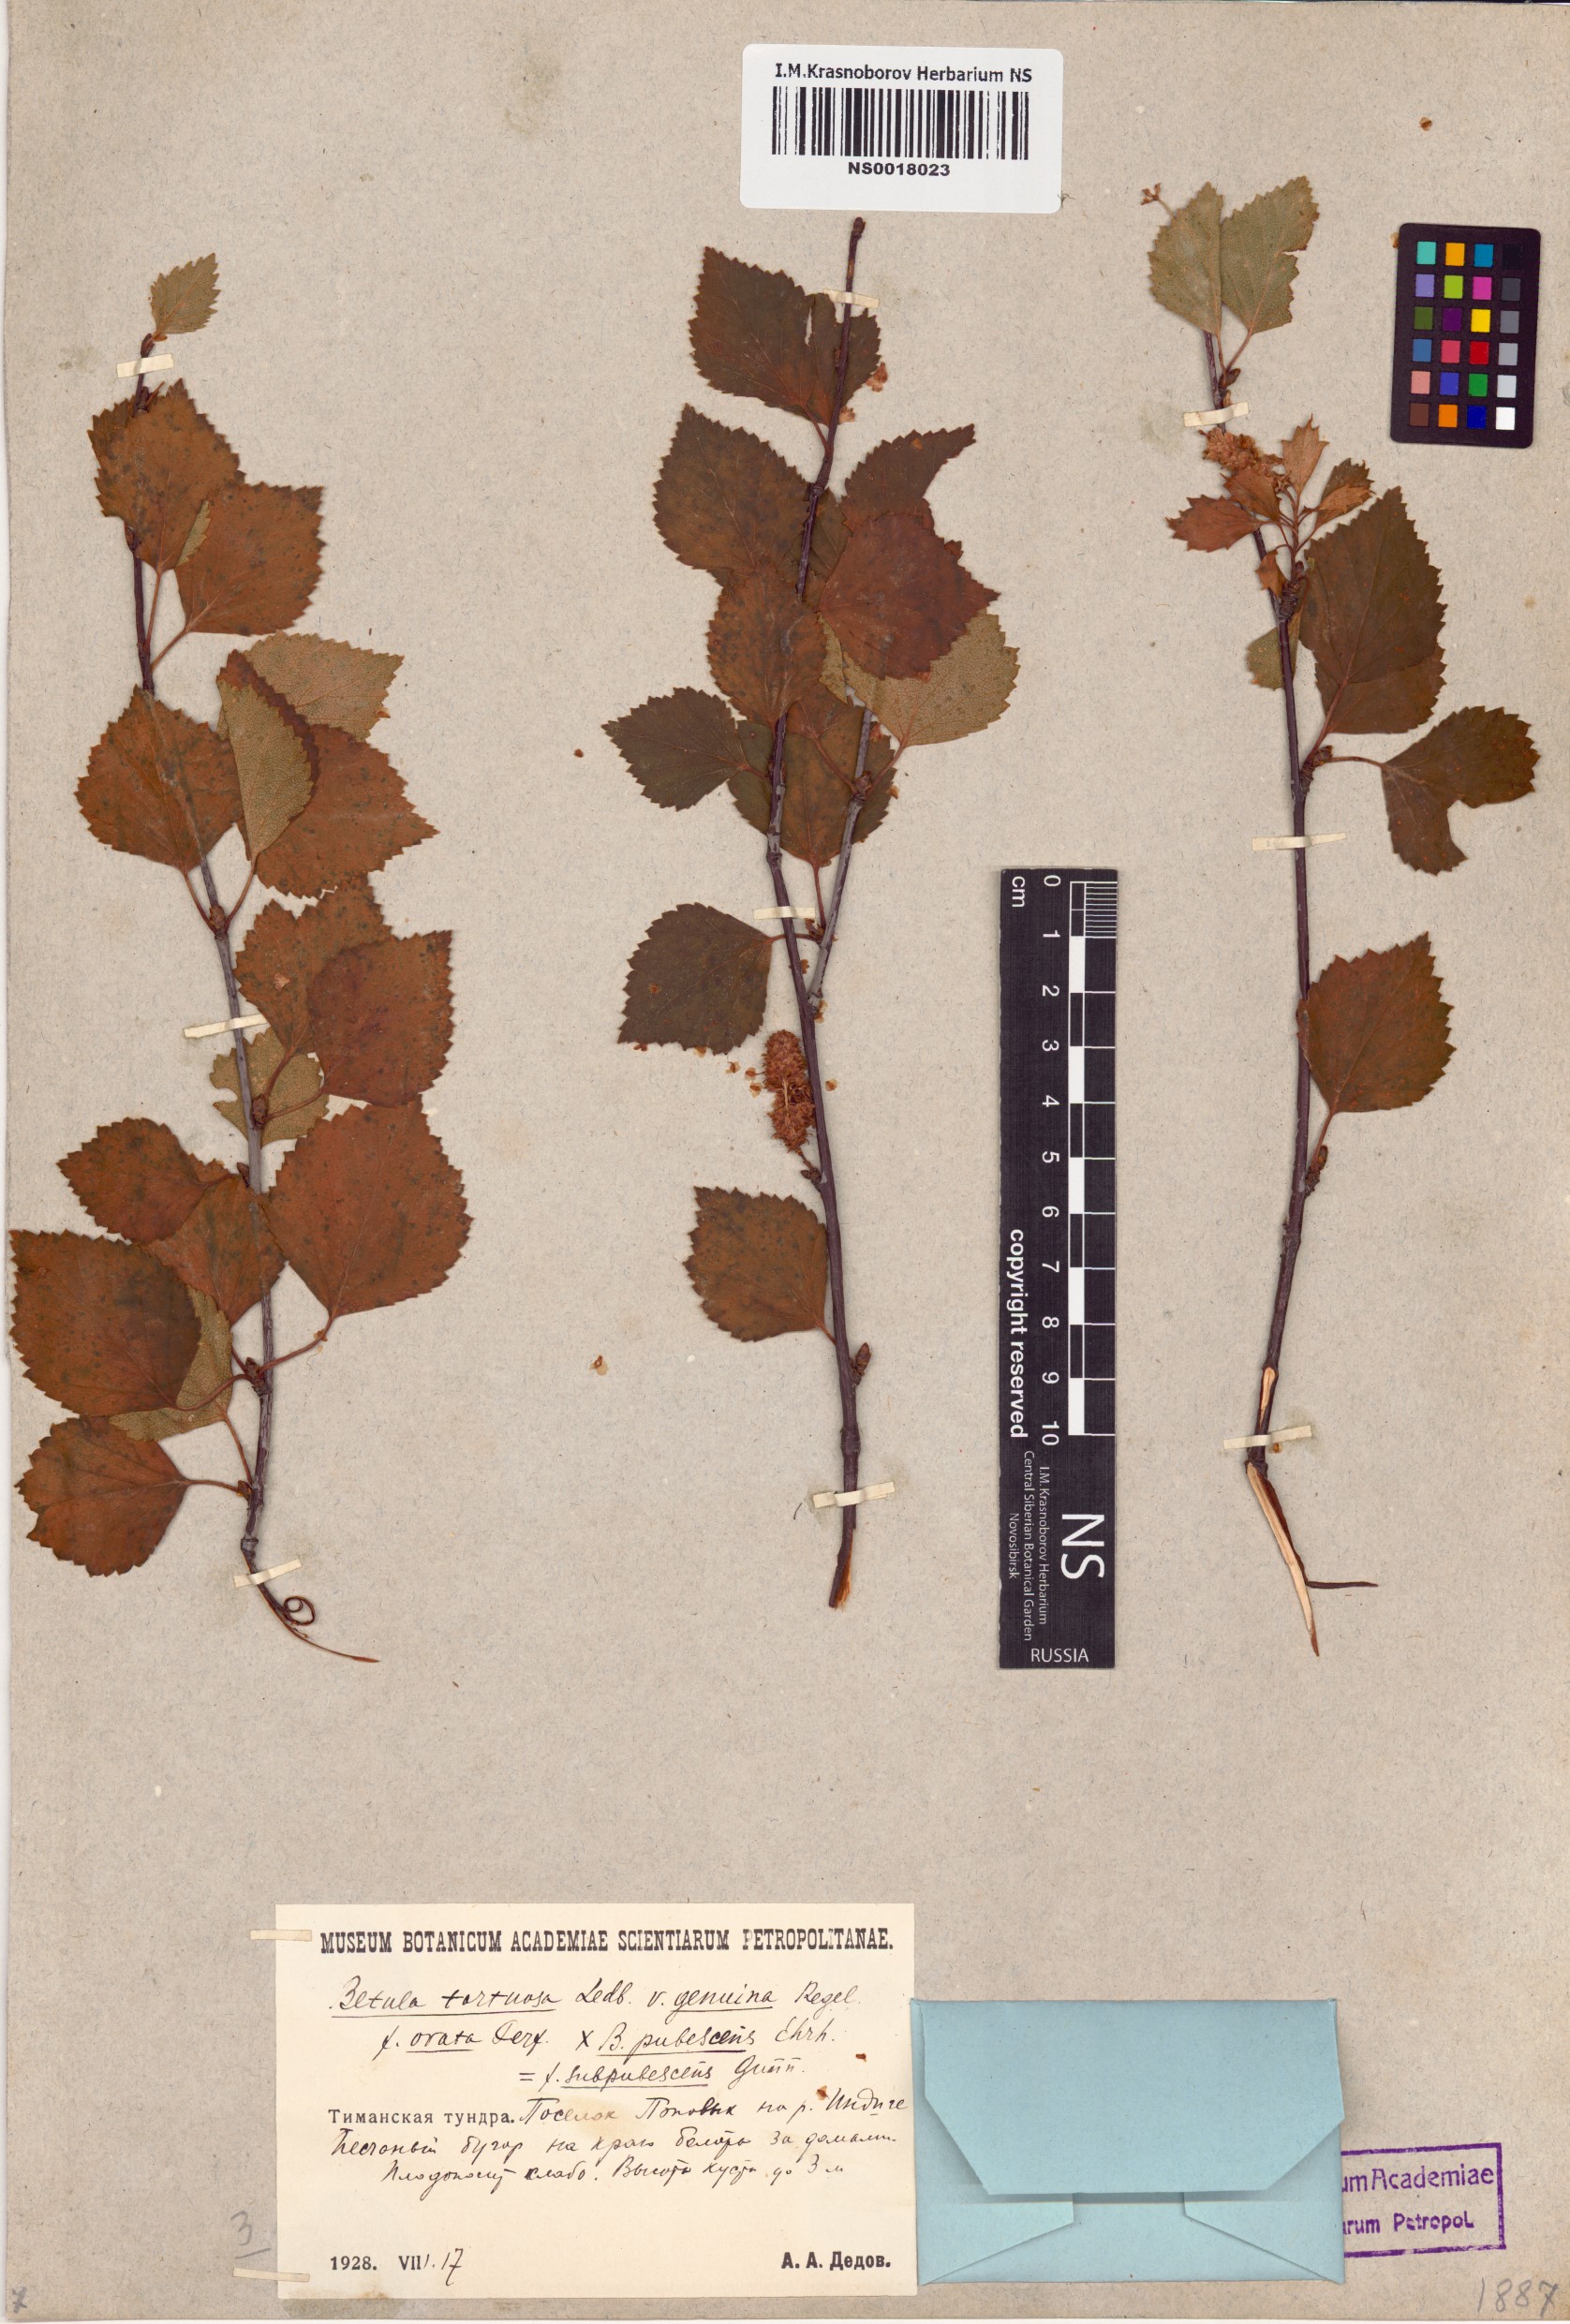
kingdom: Plantae
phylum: Tracheophyta
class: Magnoliopsida
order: Fagales
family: Betulaceae
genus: Betula
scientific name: Betula pubescens
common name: Downy birch
